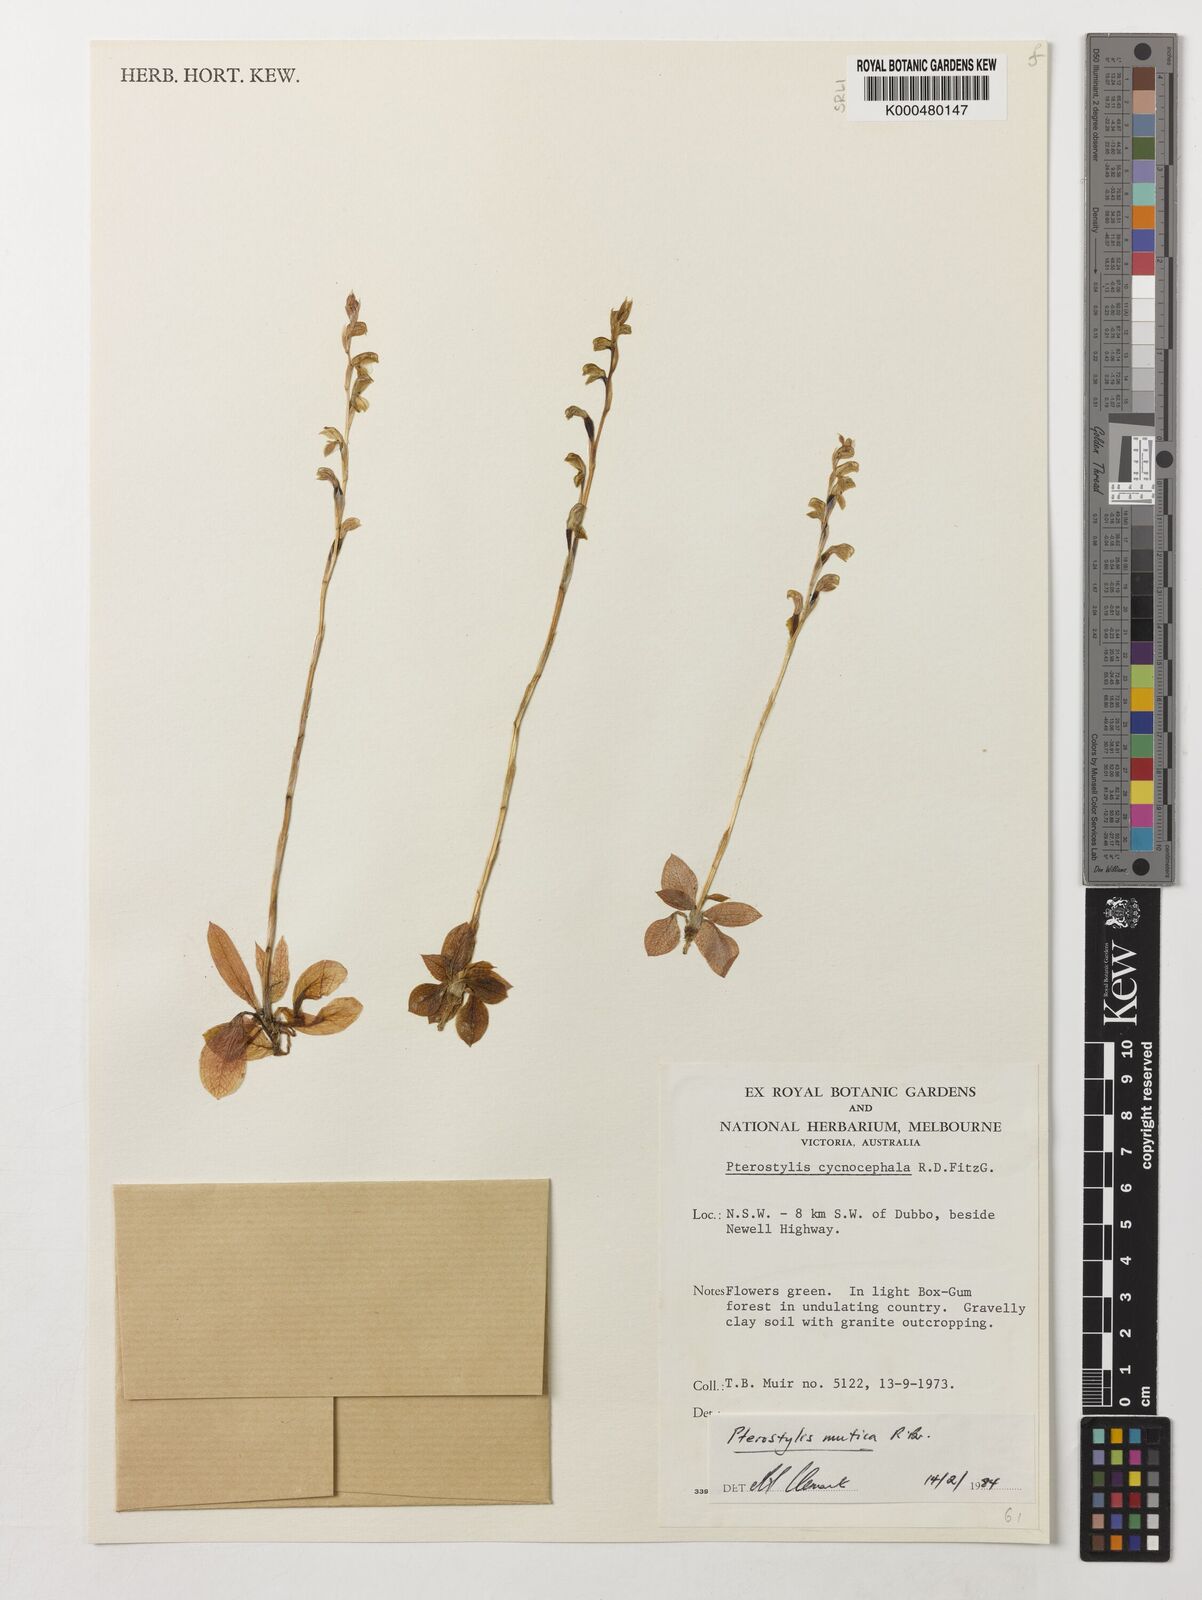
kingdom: Plantae
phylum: Tracheophyta
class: Liliopsida
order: Asparagales
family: Orchidaceae
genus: Pterostylis
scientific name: Pterostylis mutica
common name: Midget greenhood
